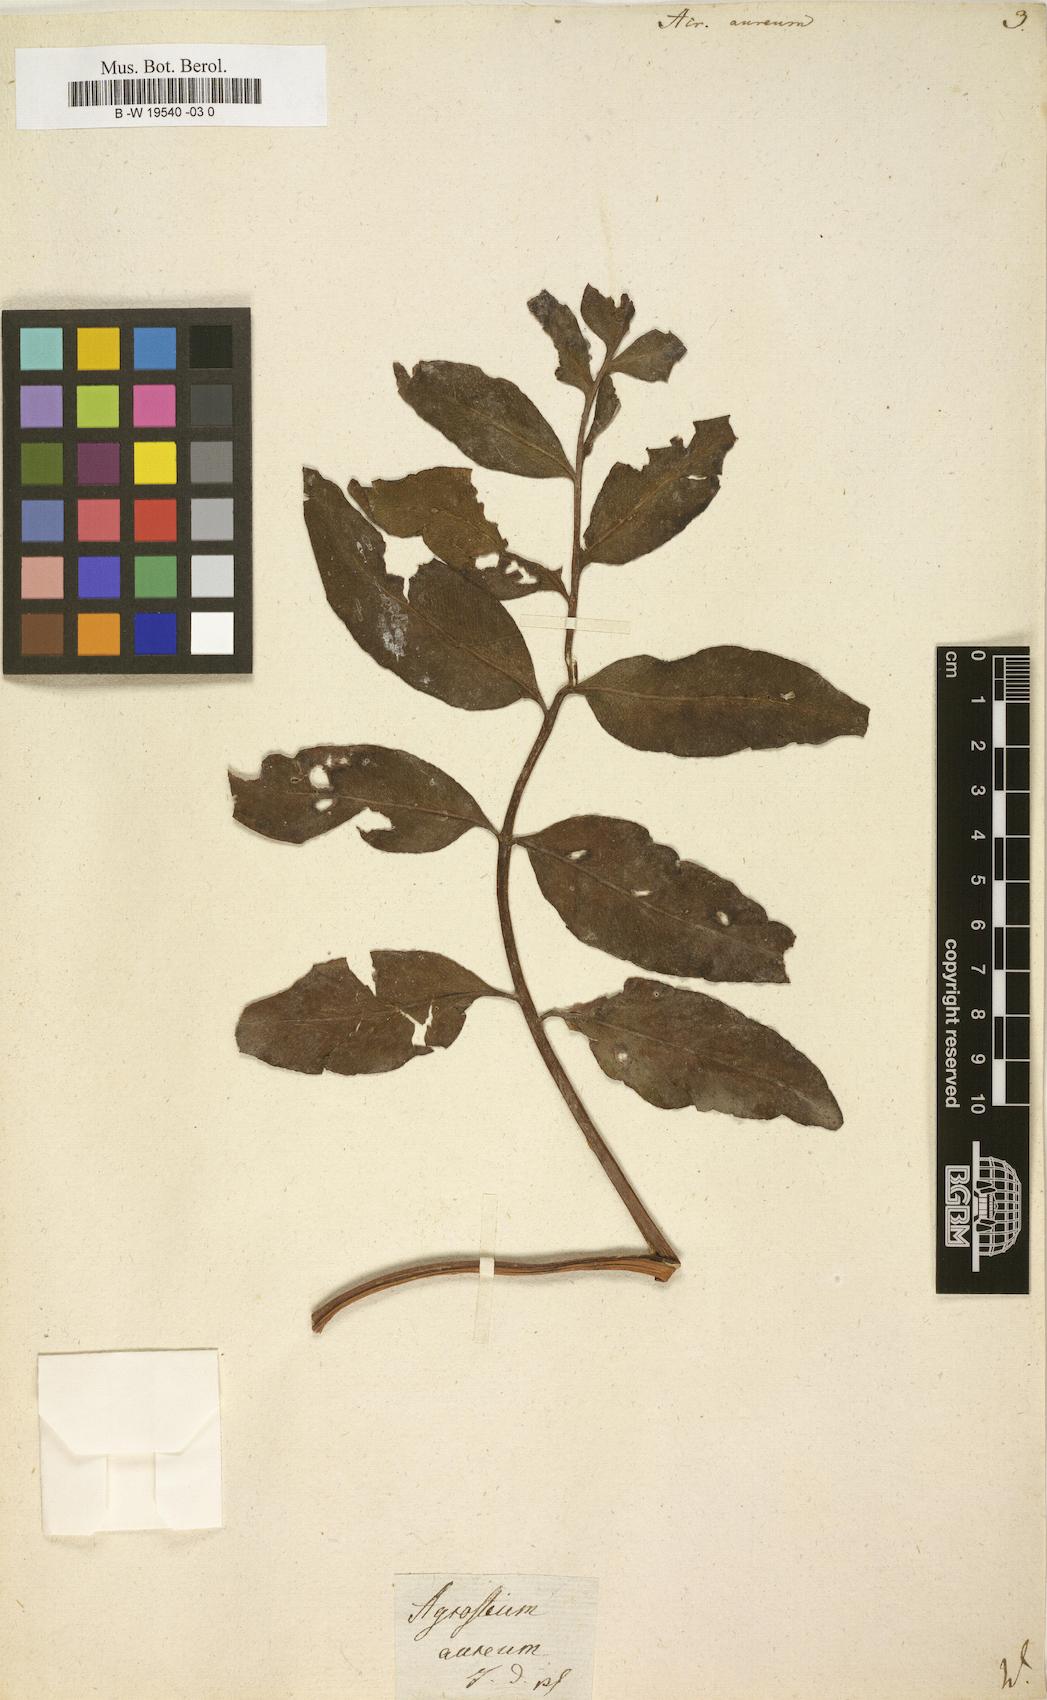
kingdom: Plantae
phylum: Tracheophyta
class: Polypodiopsida
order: Polypodiales
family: Pteridaceae
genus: Acrostichum
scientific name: Acrostichum aureum
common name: Leather fern
